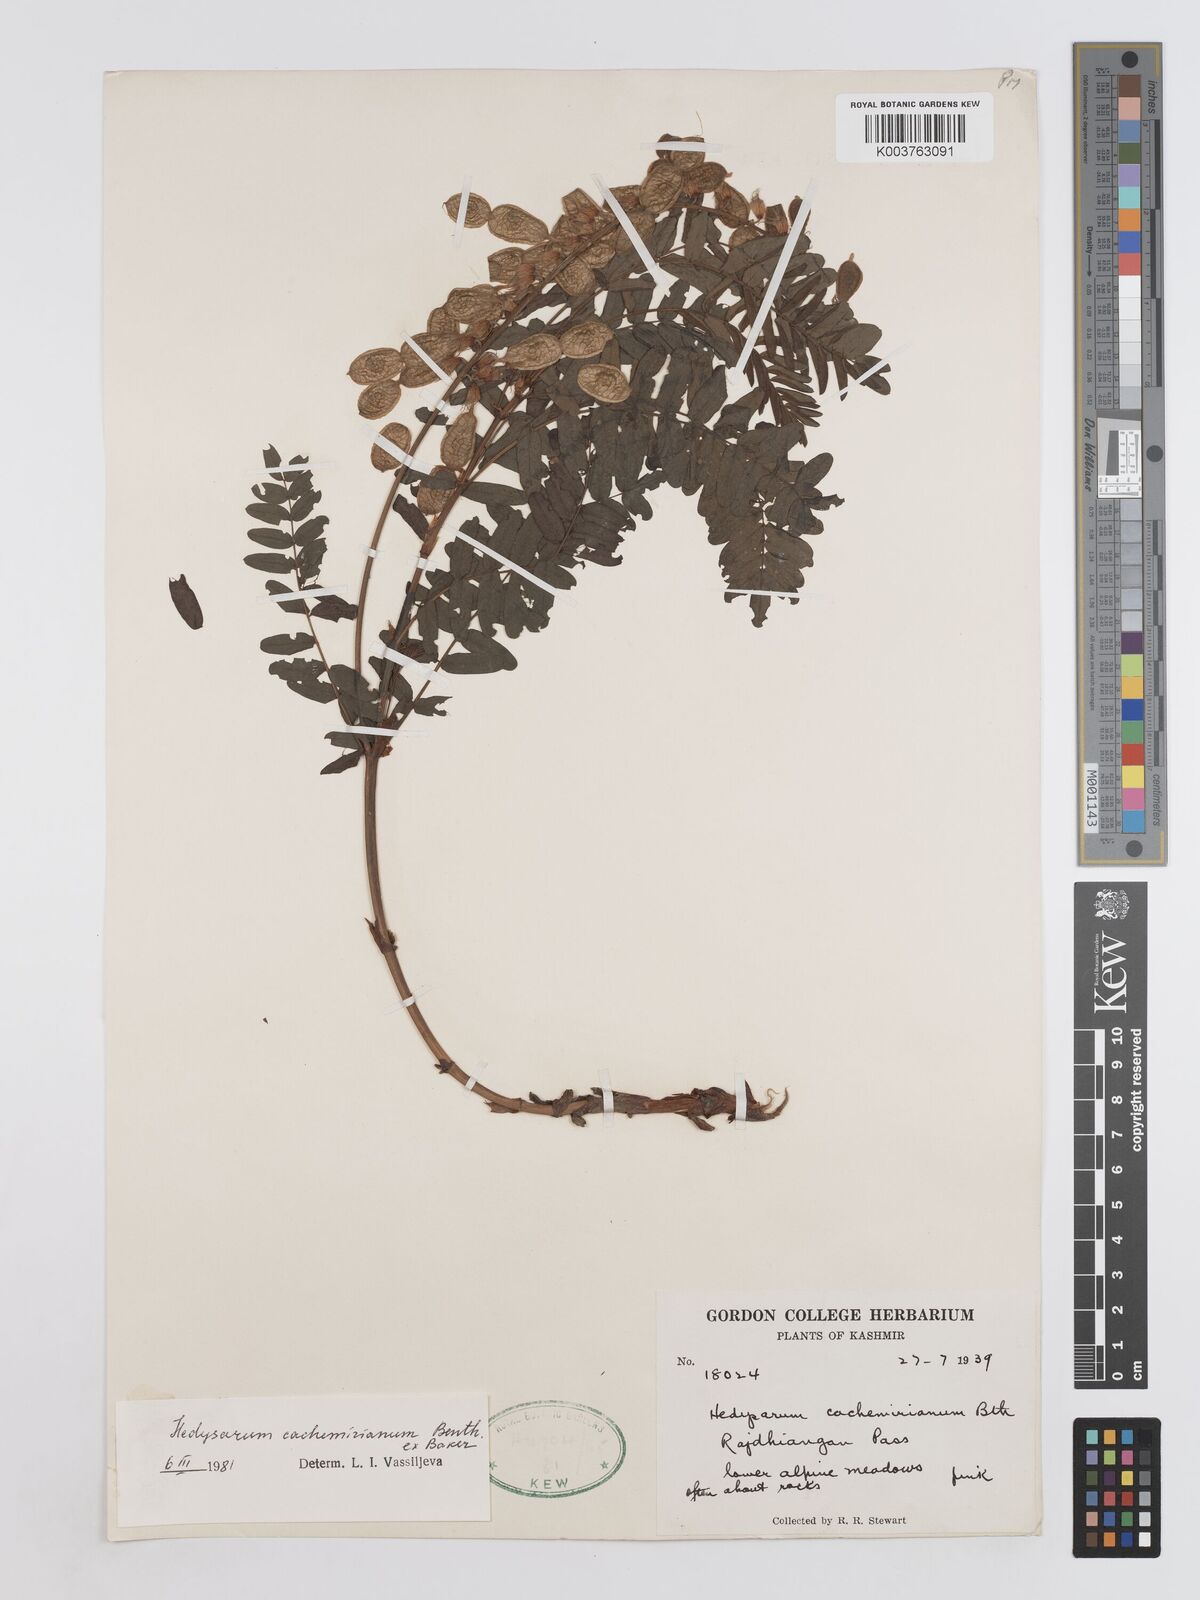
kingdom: Plantae
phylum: Tracheophyta
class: Magnoliopsida
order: Fabales
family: Fabaceae
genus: Hedysarum
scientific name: Hedysarum cachemirianum
